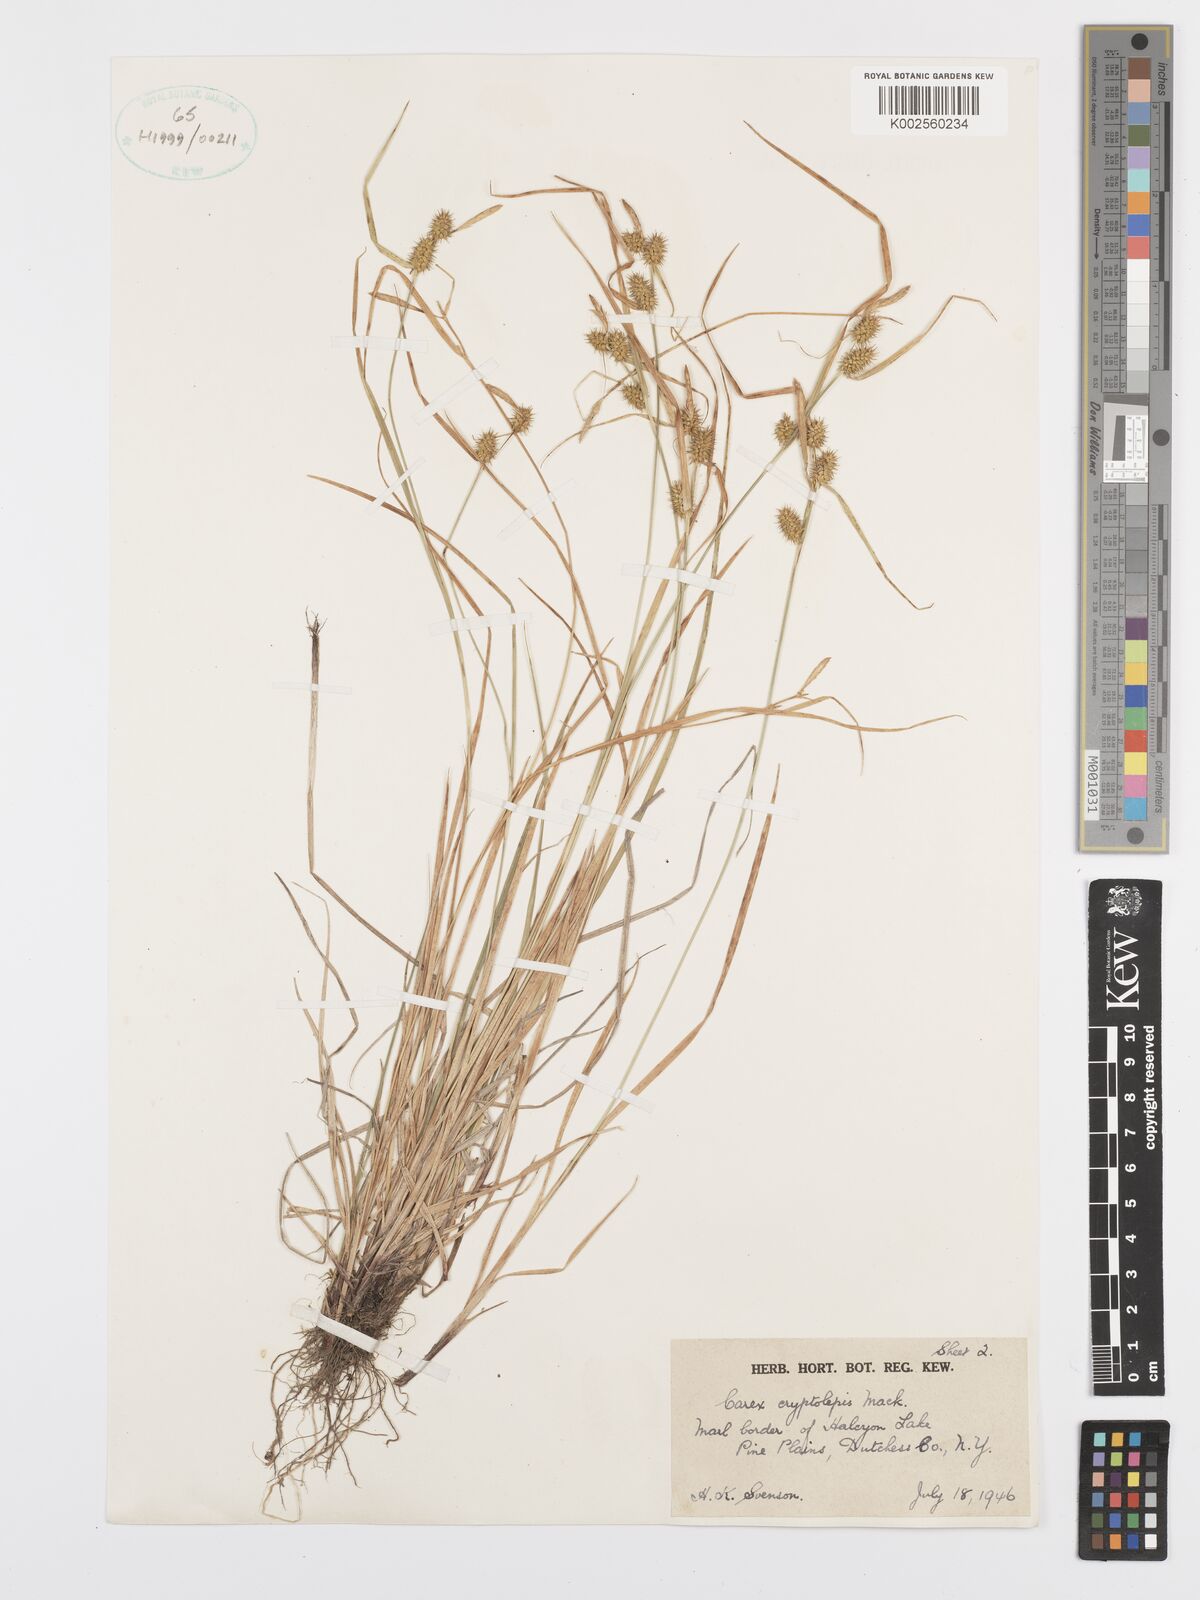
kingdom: Plantae
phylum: Tracheophyta
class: Liliopsida
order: Poales
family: Cyperaceae
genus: Carex
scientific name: Carex cryptolepis
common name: Northeastern sedge
